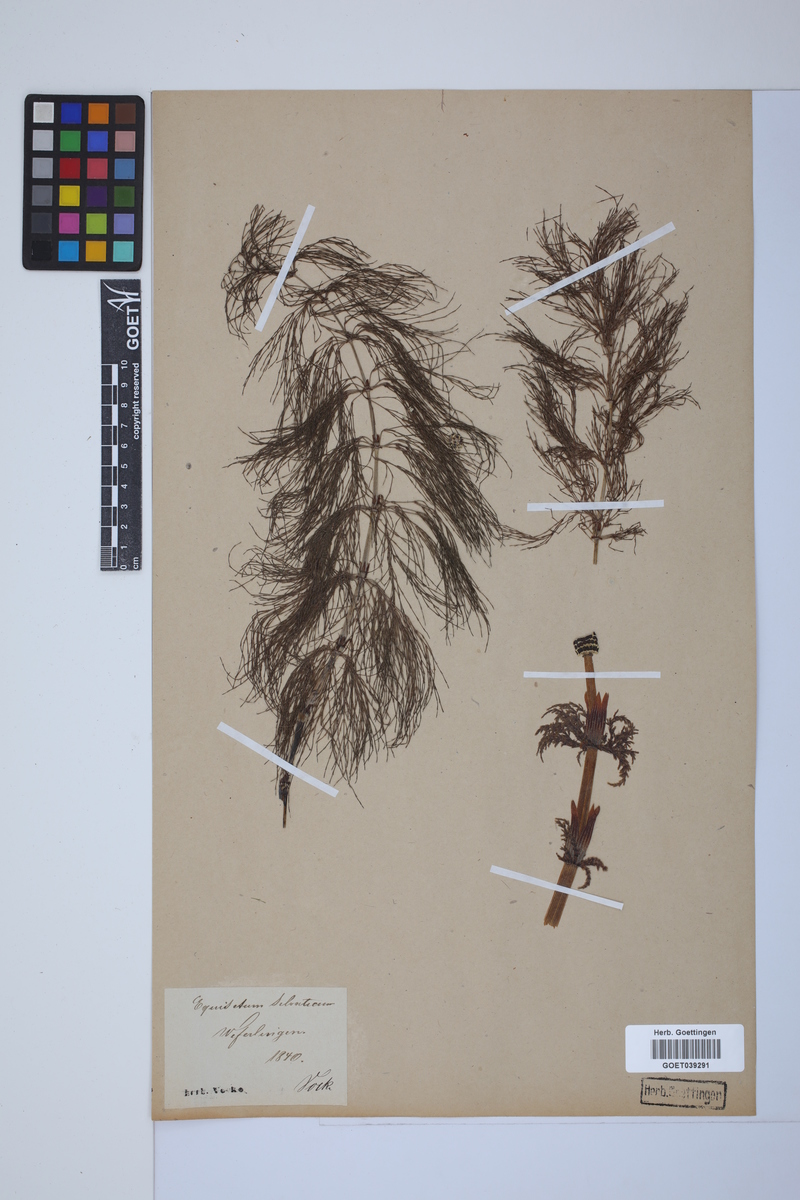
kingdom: Plantae
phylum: Tracheophyta
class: Polypodiopsida
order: Equisetales
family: Equisetaceae
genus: Equisetum
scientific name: Equisetum sylvaticum
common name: Wood horsetail
